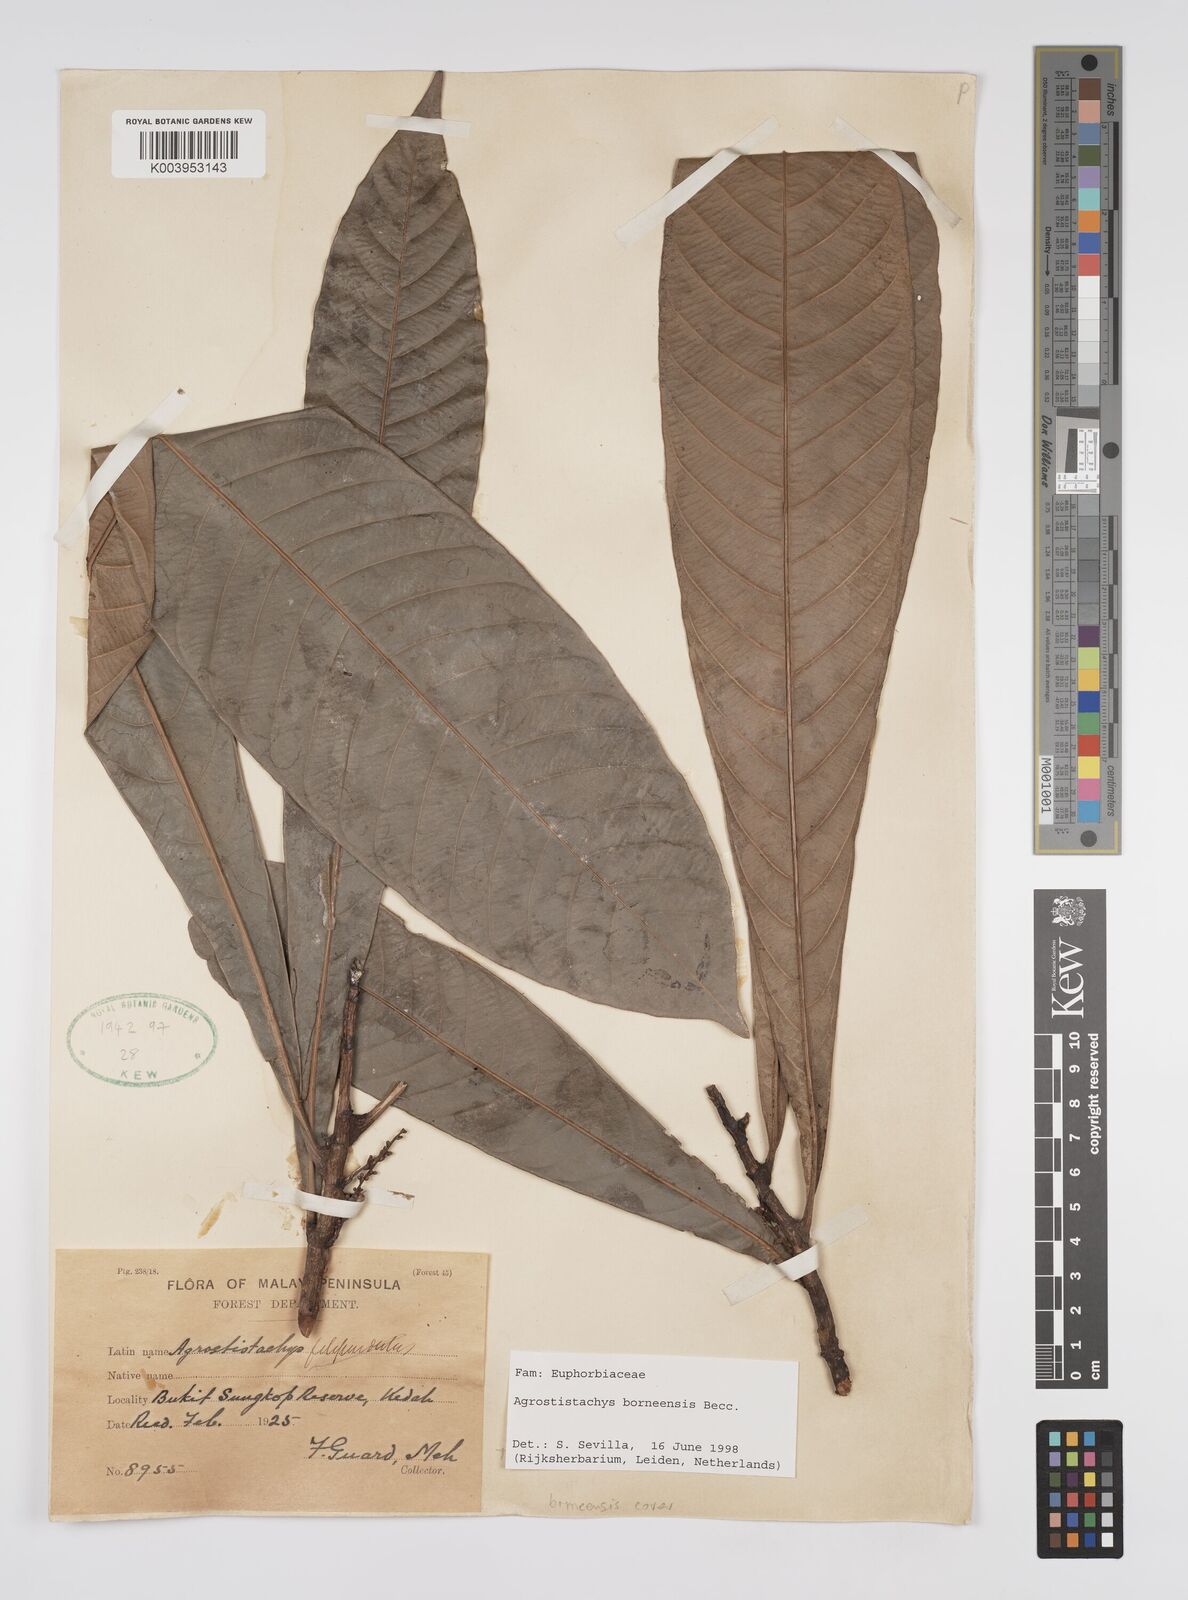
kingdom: Plantae
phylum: Tracheophyta
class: Magnoliopsida
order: Malpighiales
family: Euphorbiaceae
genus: Agrostistachys
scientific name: Agrostistachys borneensis
